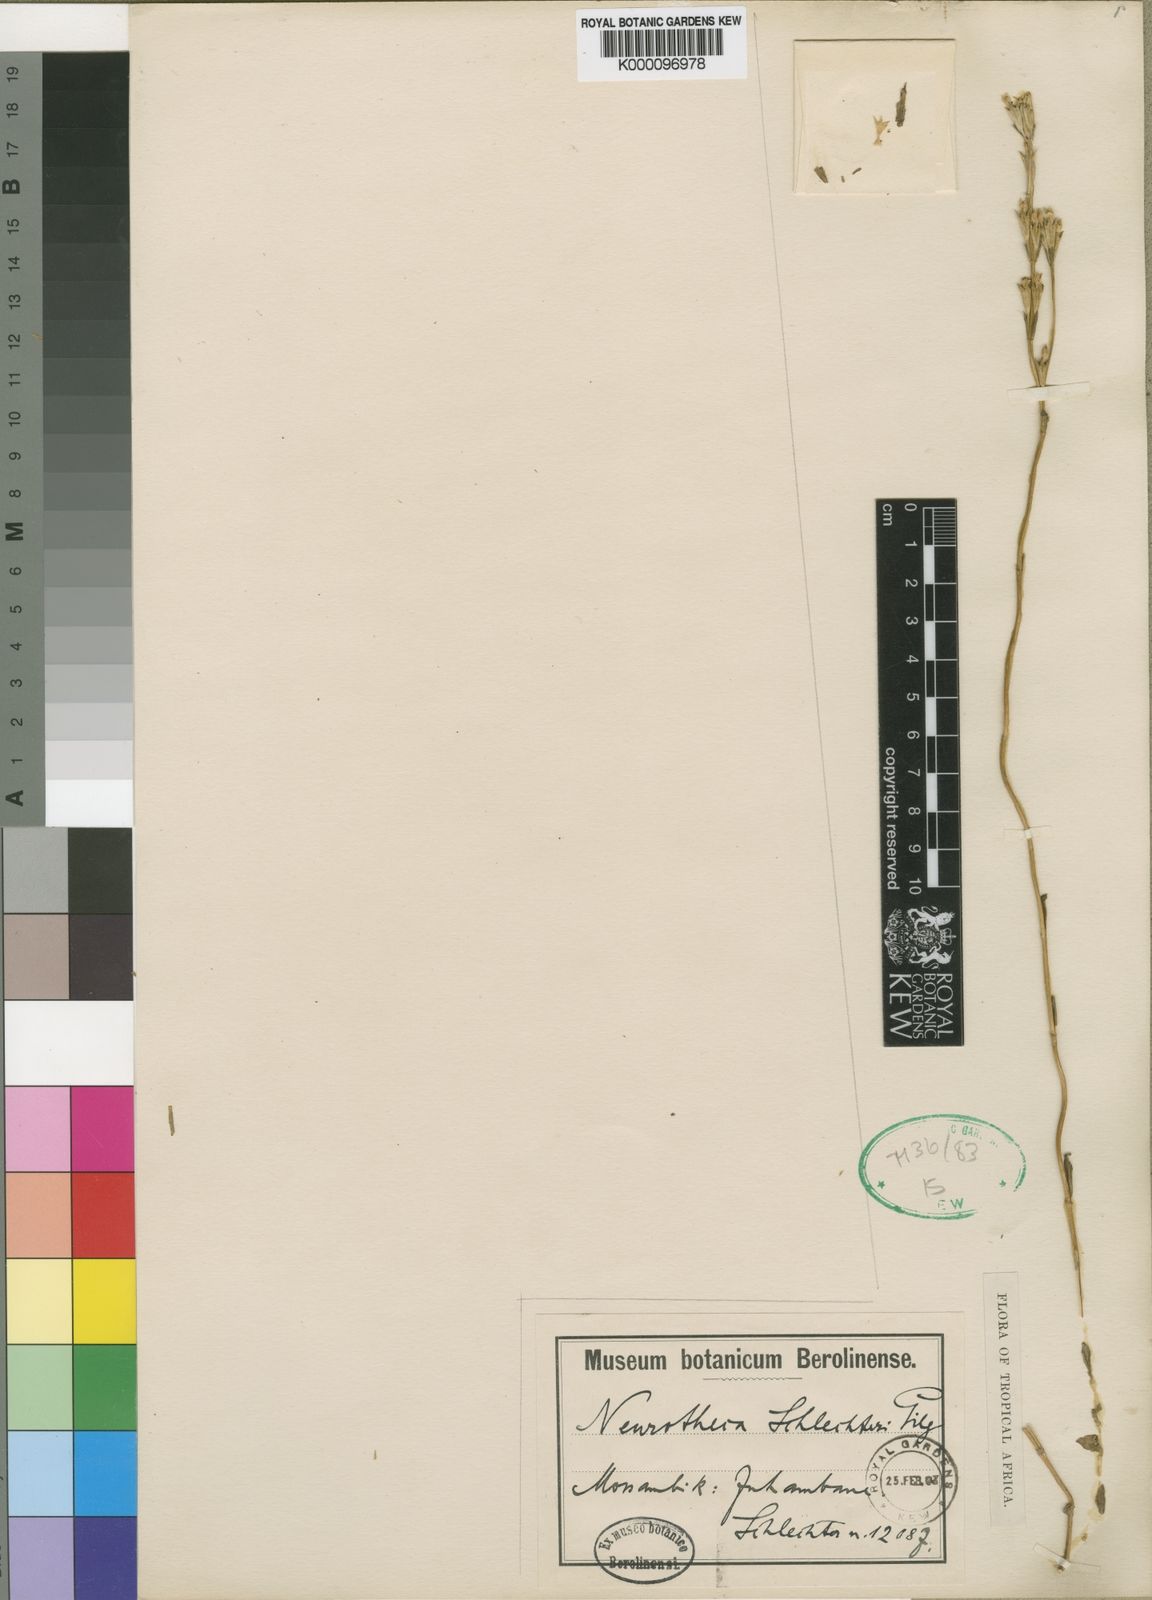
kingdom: Plantae
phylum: Tracheophyta
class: Magnoliopsida
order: Gentianales
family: Gentianaceae
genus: Neurotheca
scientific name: Neurotheca congolana
